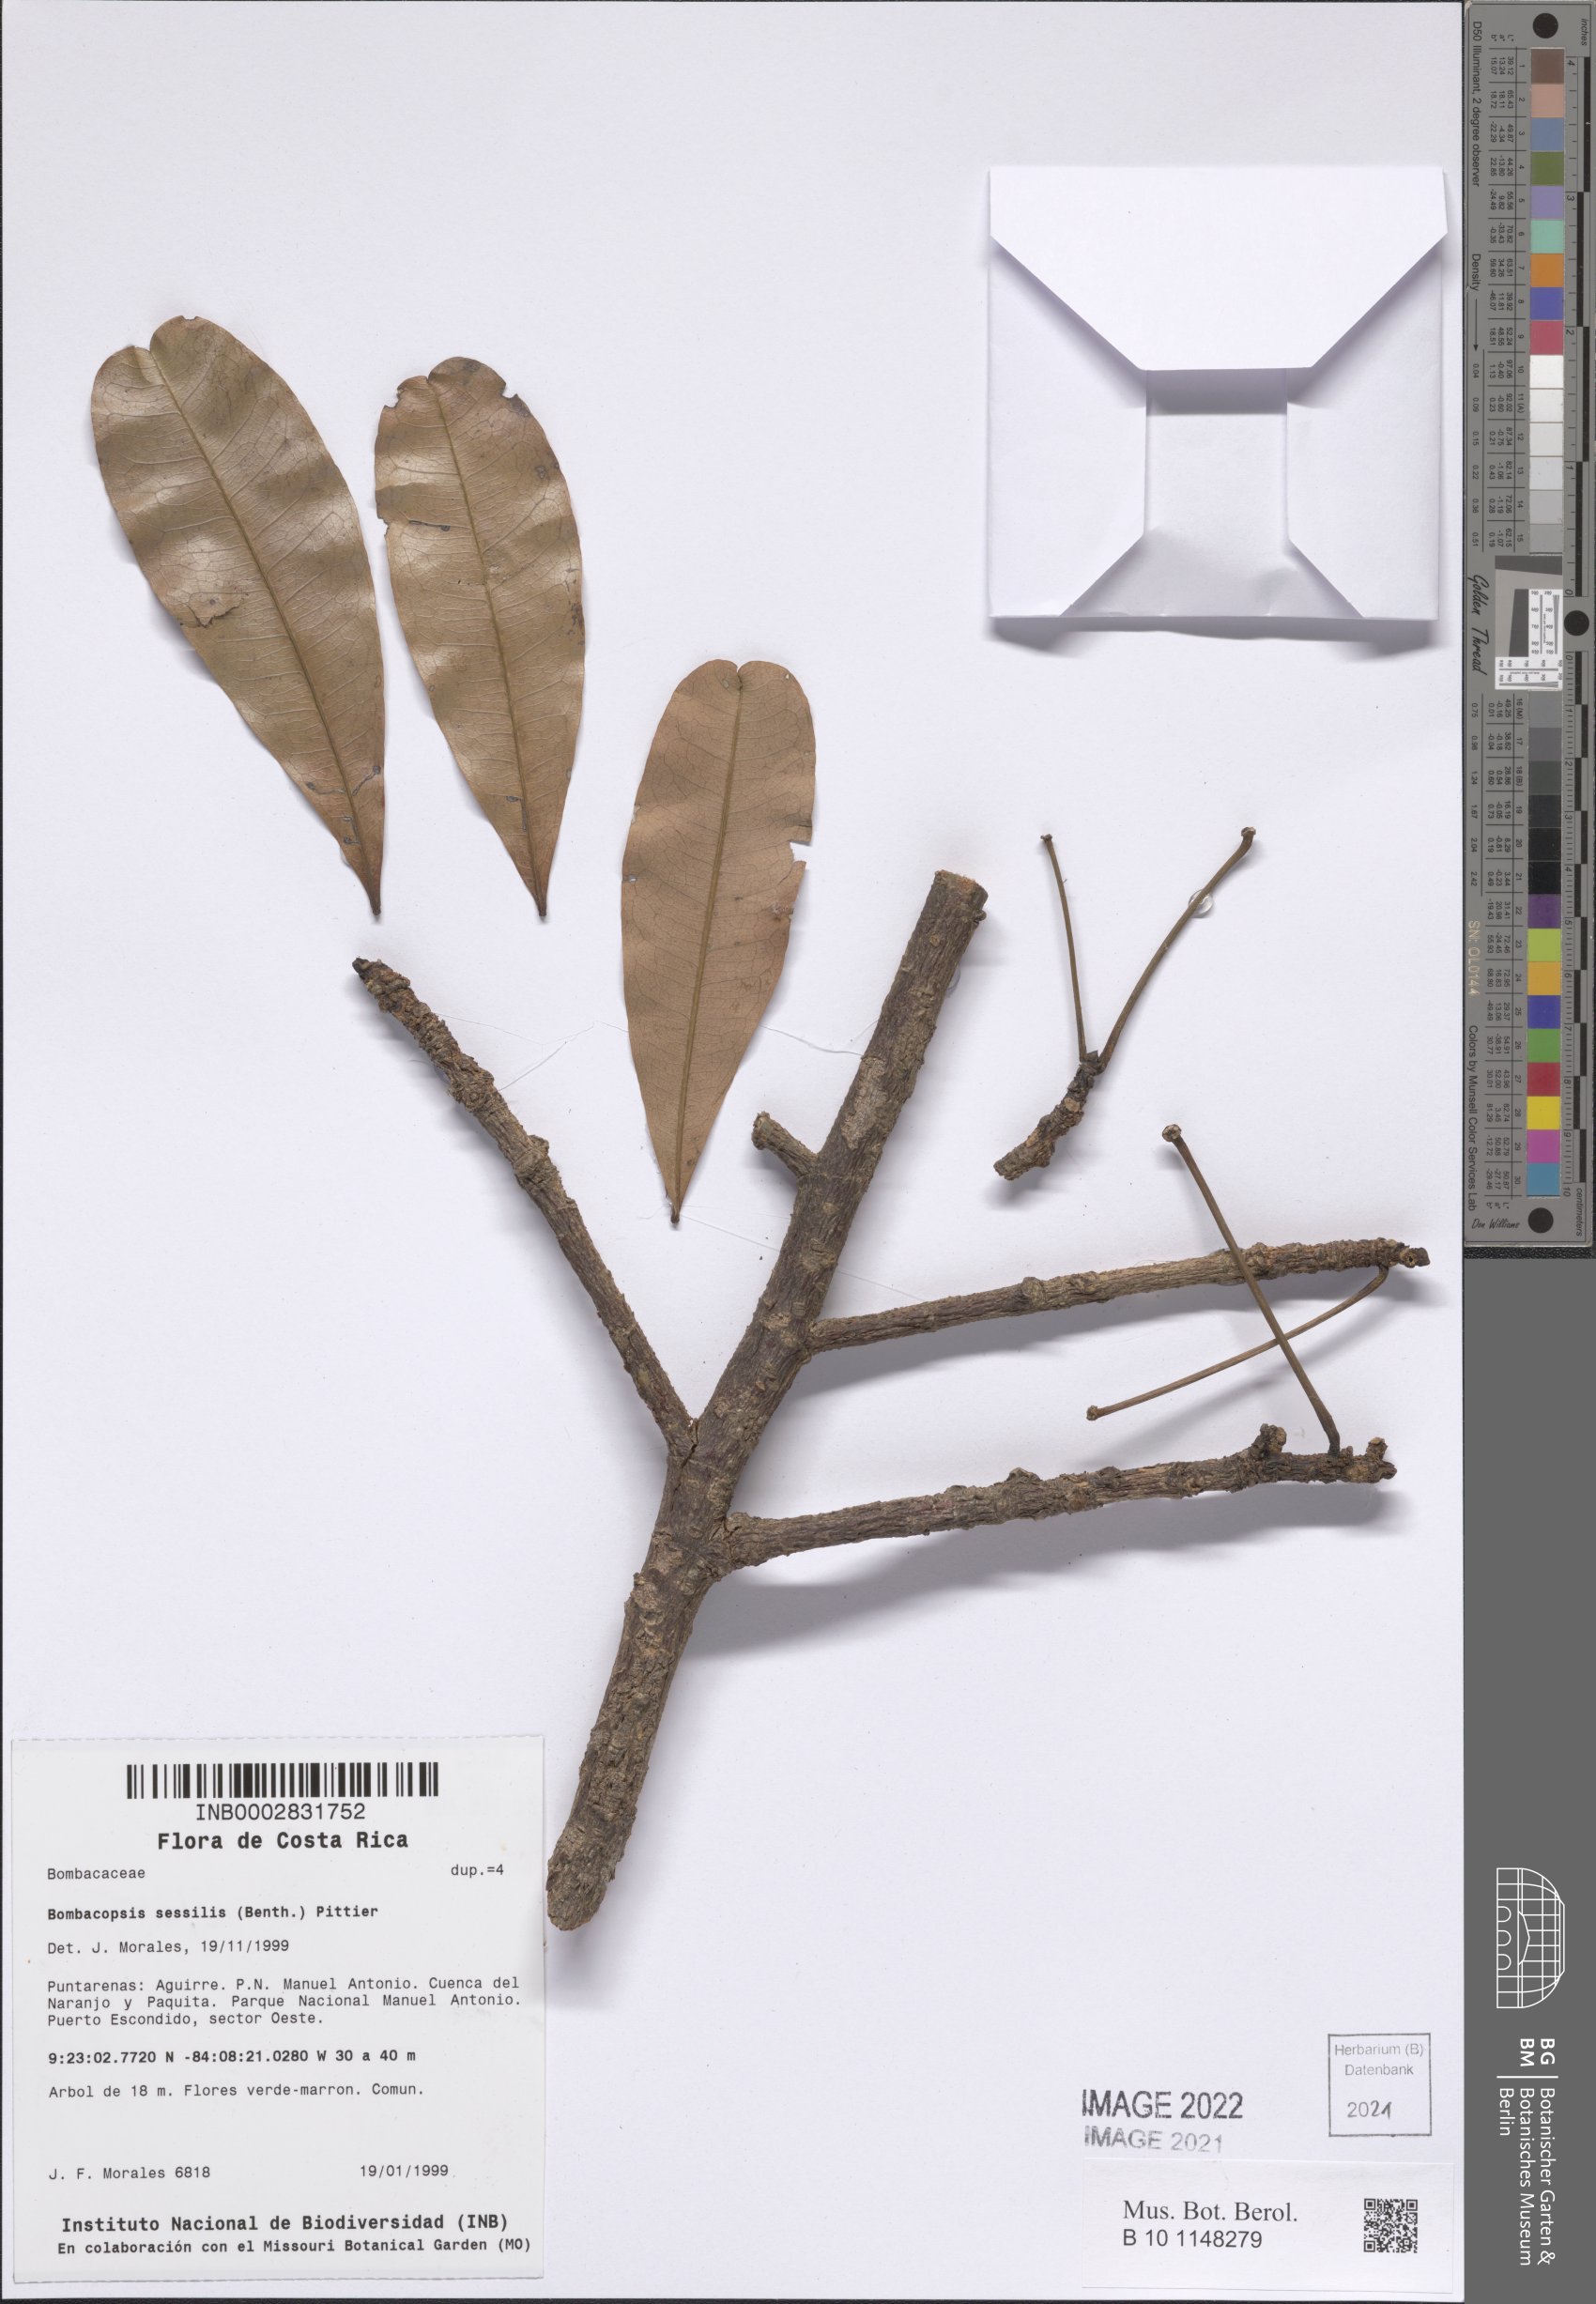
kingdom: Plantae
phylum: Tracheophyta
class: Magnoliopsida
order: Malvales
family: Malvaceae
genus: Pachira
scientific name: Pachira sessilis
